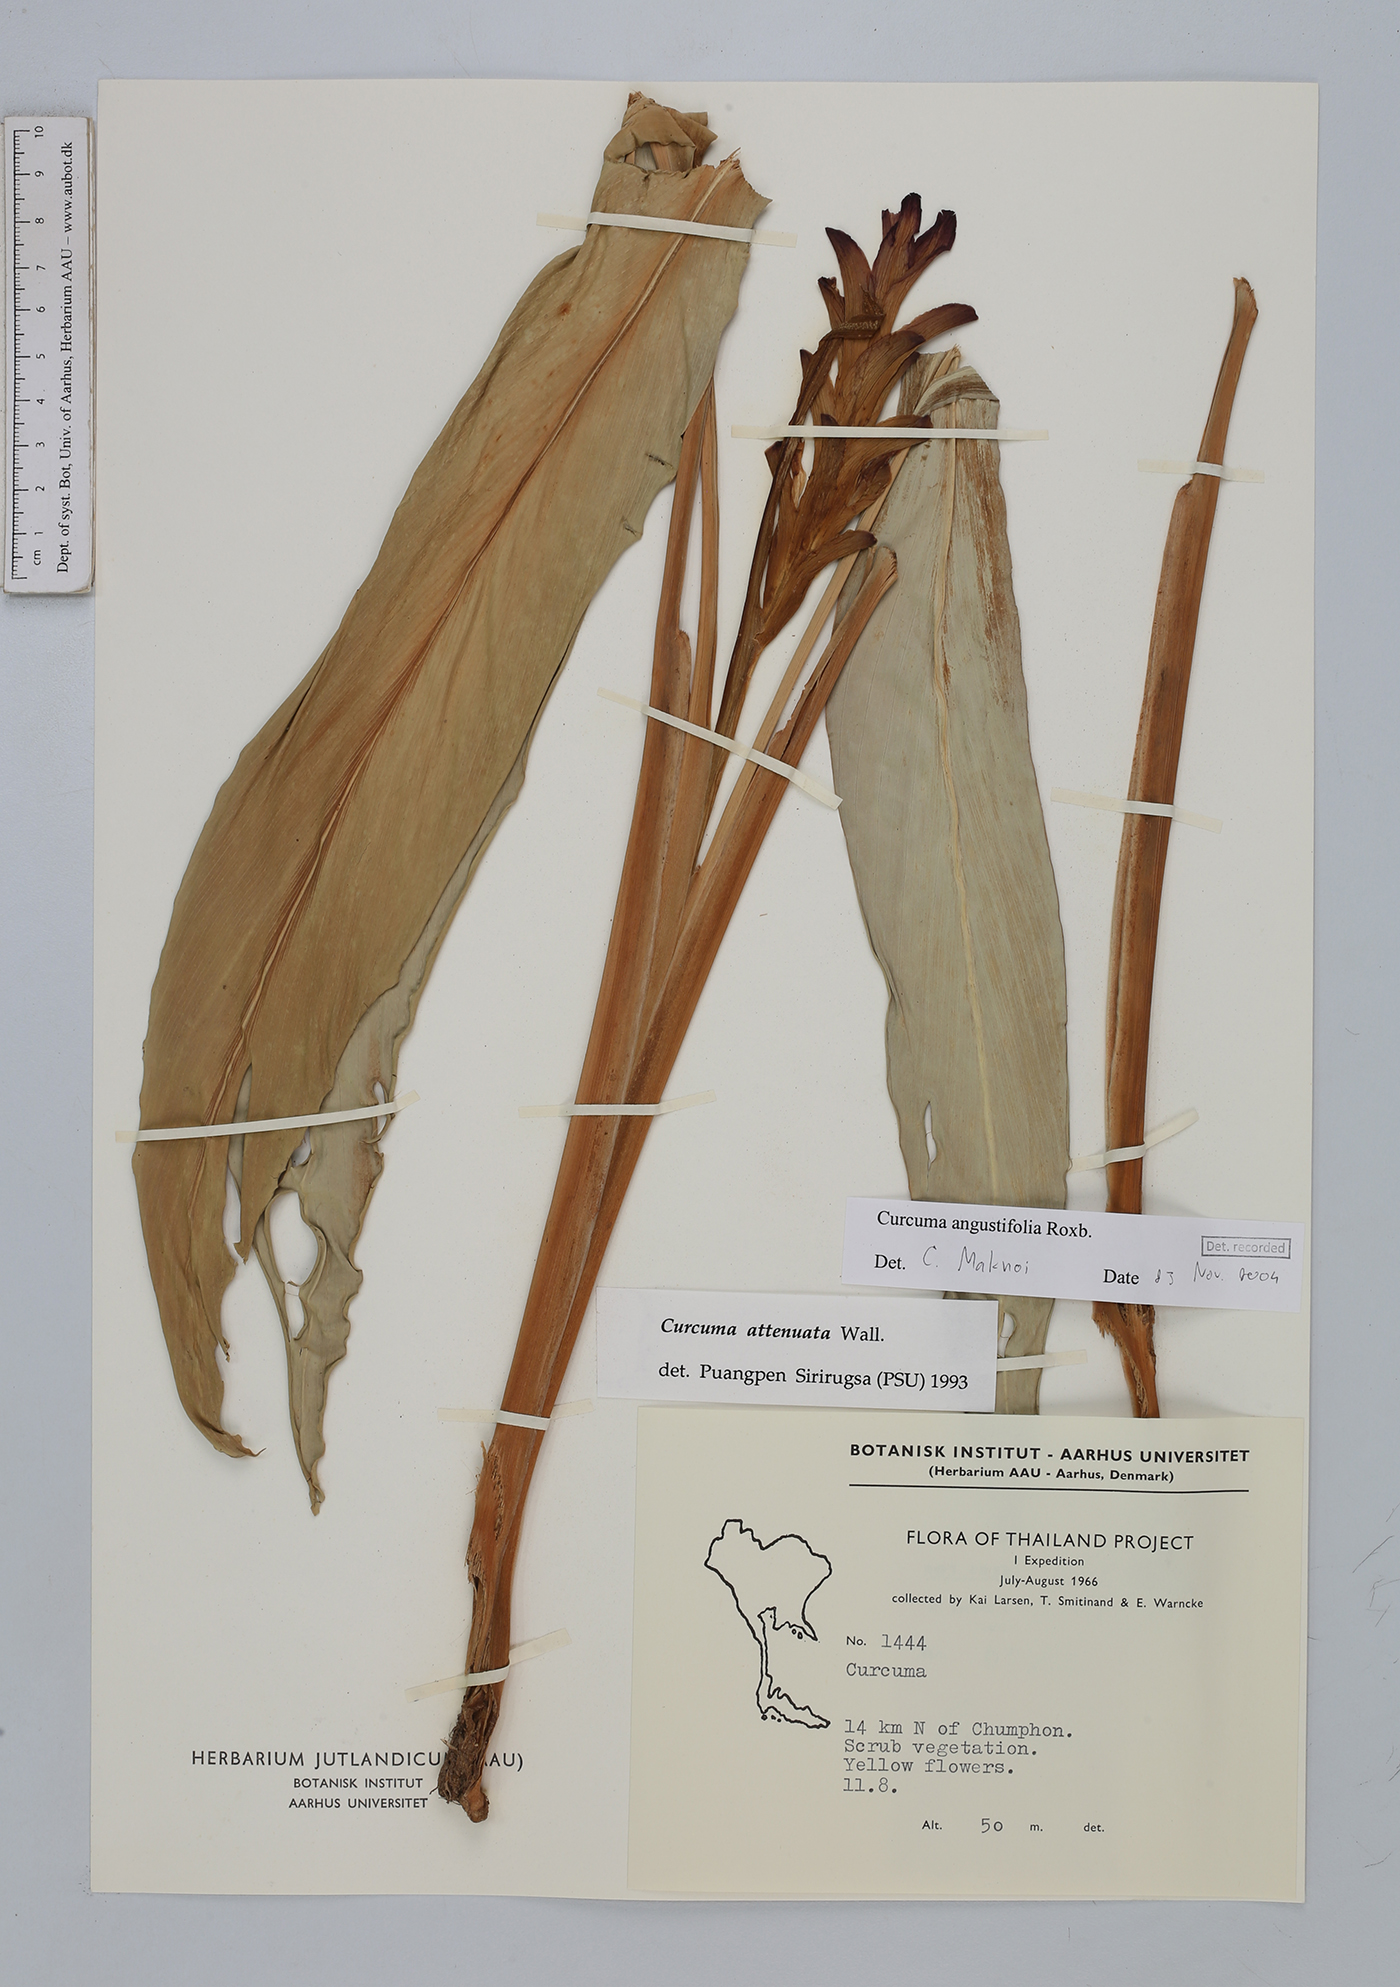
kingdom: Plantae
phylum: Tracheophyta
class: Liliopsida
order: Zingiberales
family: Zingiberaceae
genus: Curcuma
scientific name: Curcuma angustifolia
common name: East indian arrowroot
